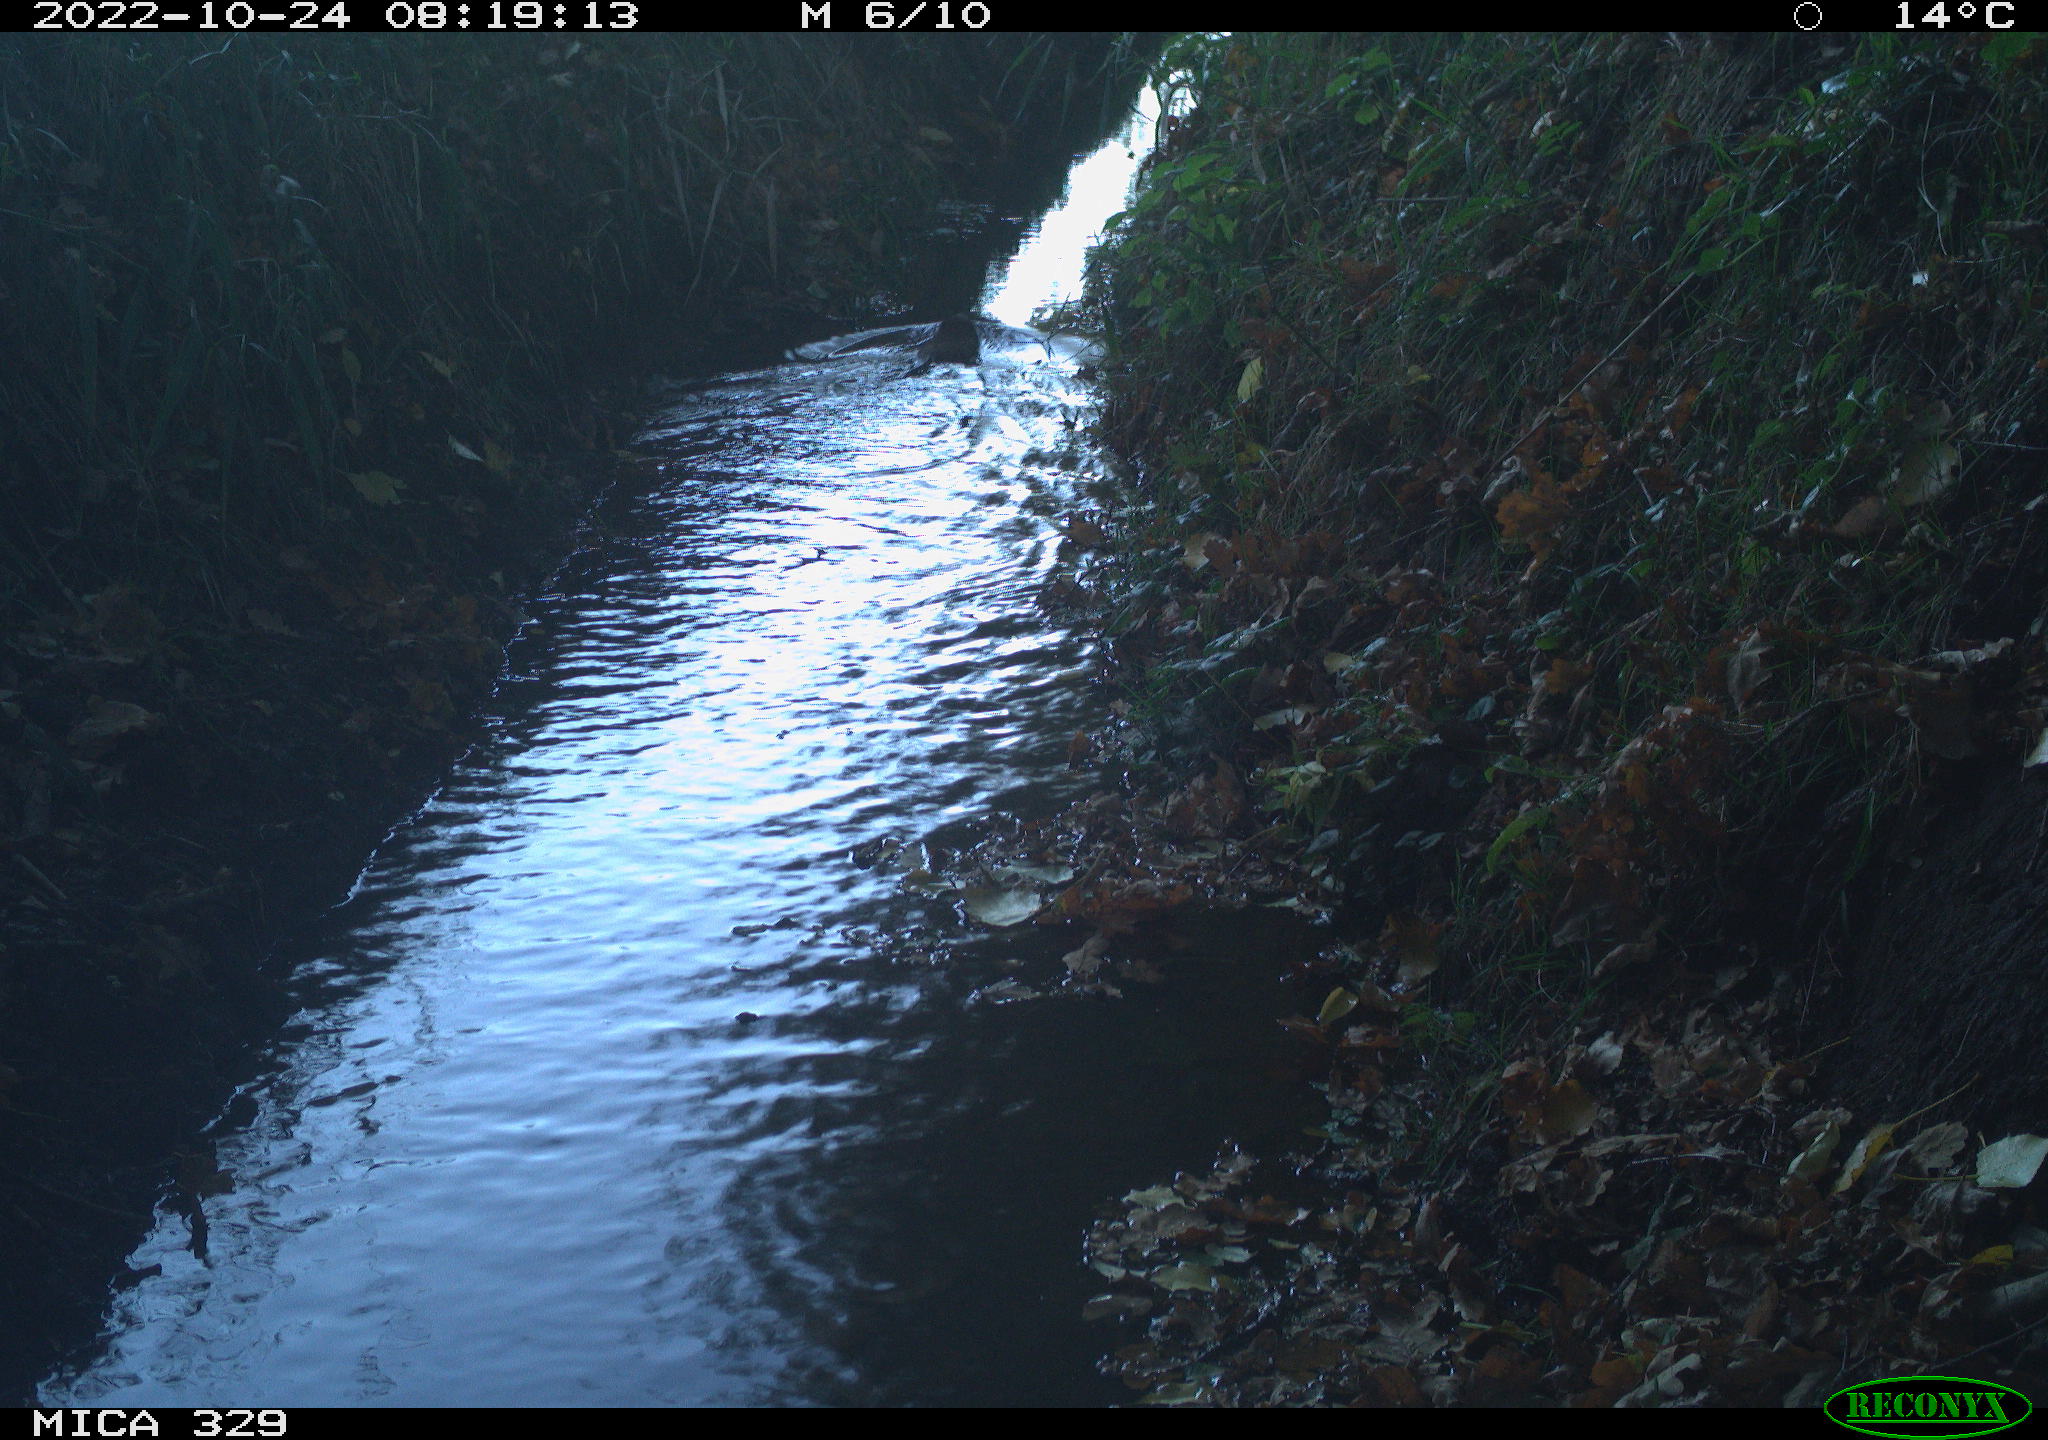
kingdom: Animalia
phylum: Chordata
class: Mammalia
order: Rodentia
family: Cricetidae
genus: Ondatra
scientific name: Ondatra zibethicus
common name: Muskrat
